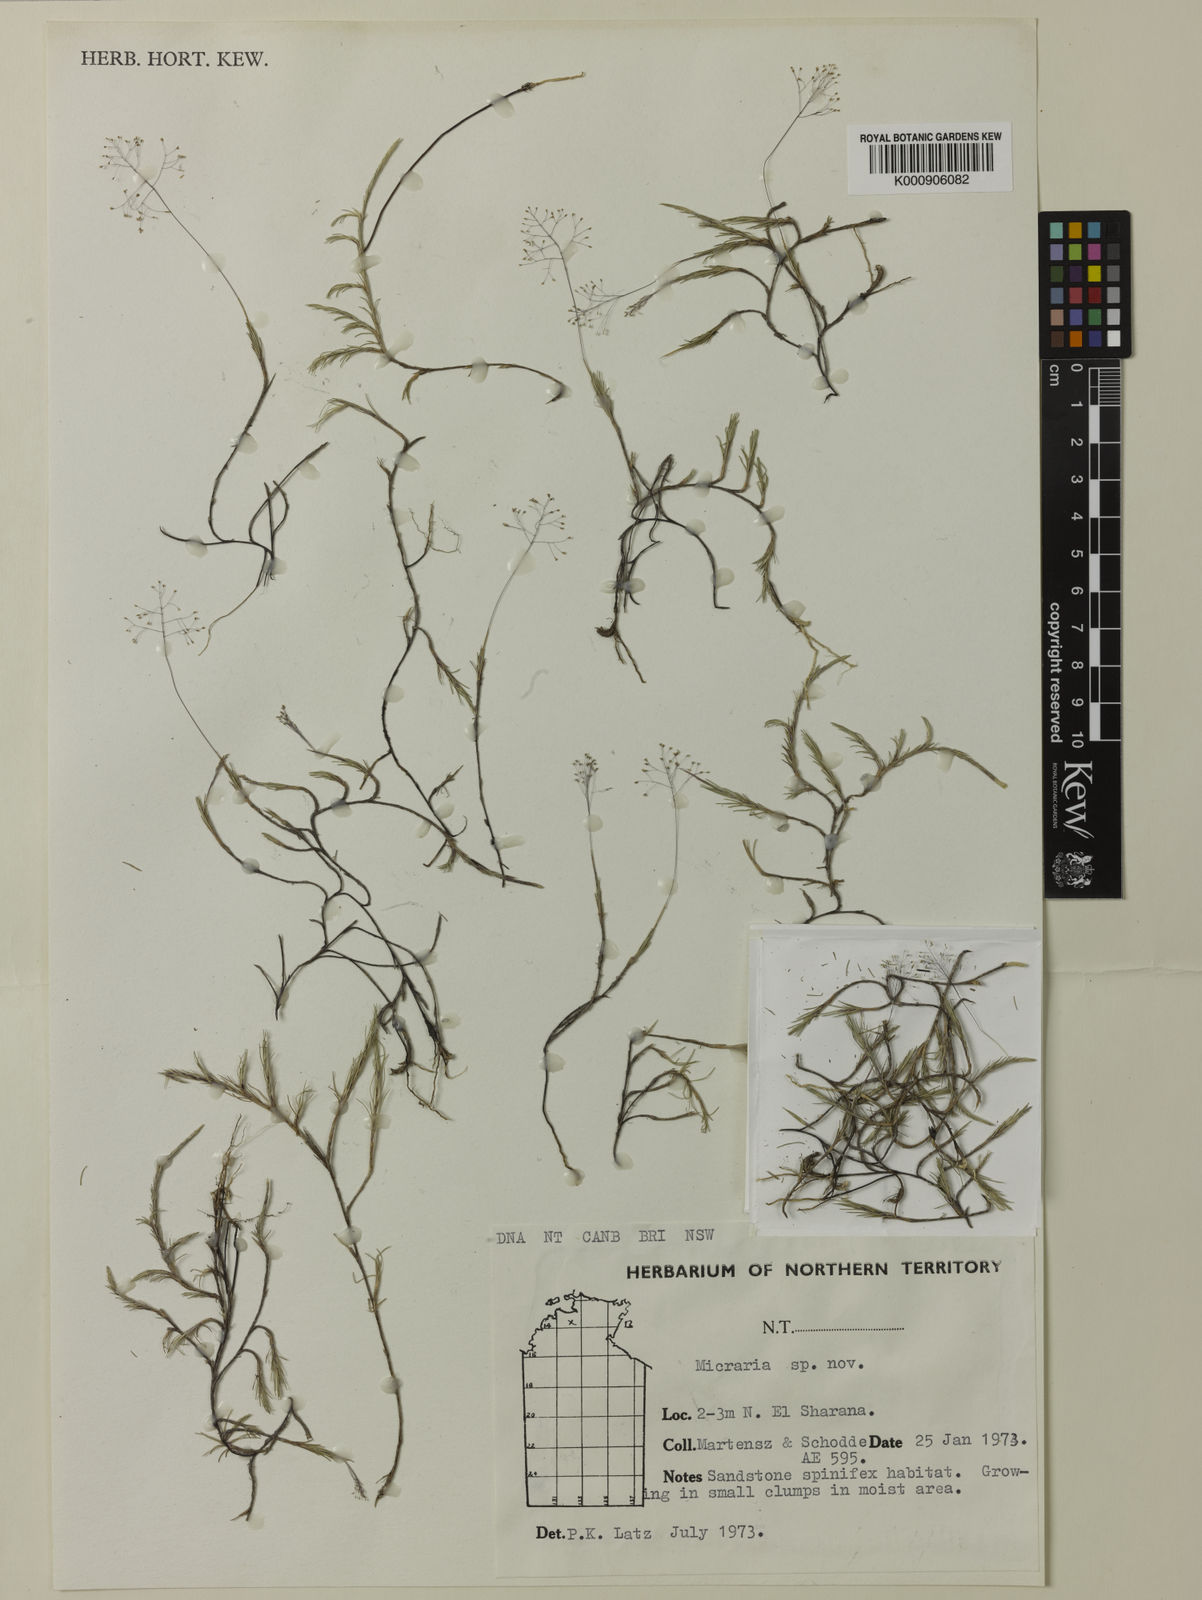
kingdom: Plantae
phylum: Tracheophyta
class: Liliopsida
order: Poales
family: Poaceae
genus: Micraira
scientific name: Micraira tenuis
